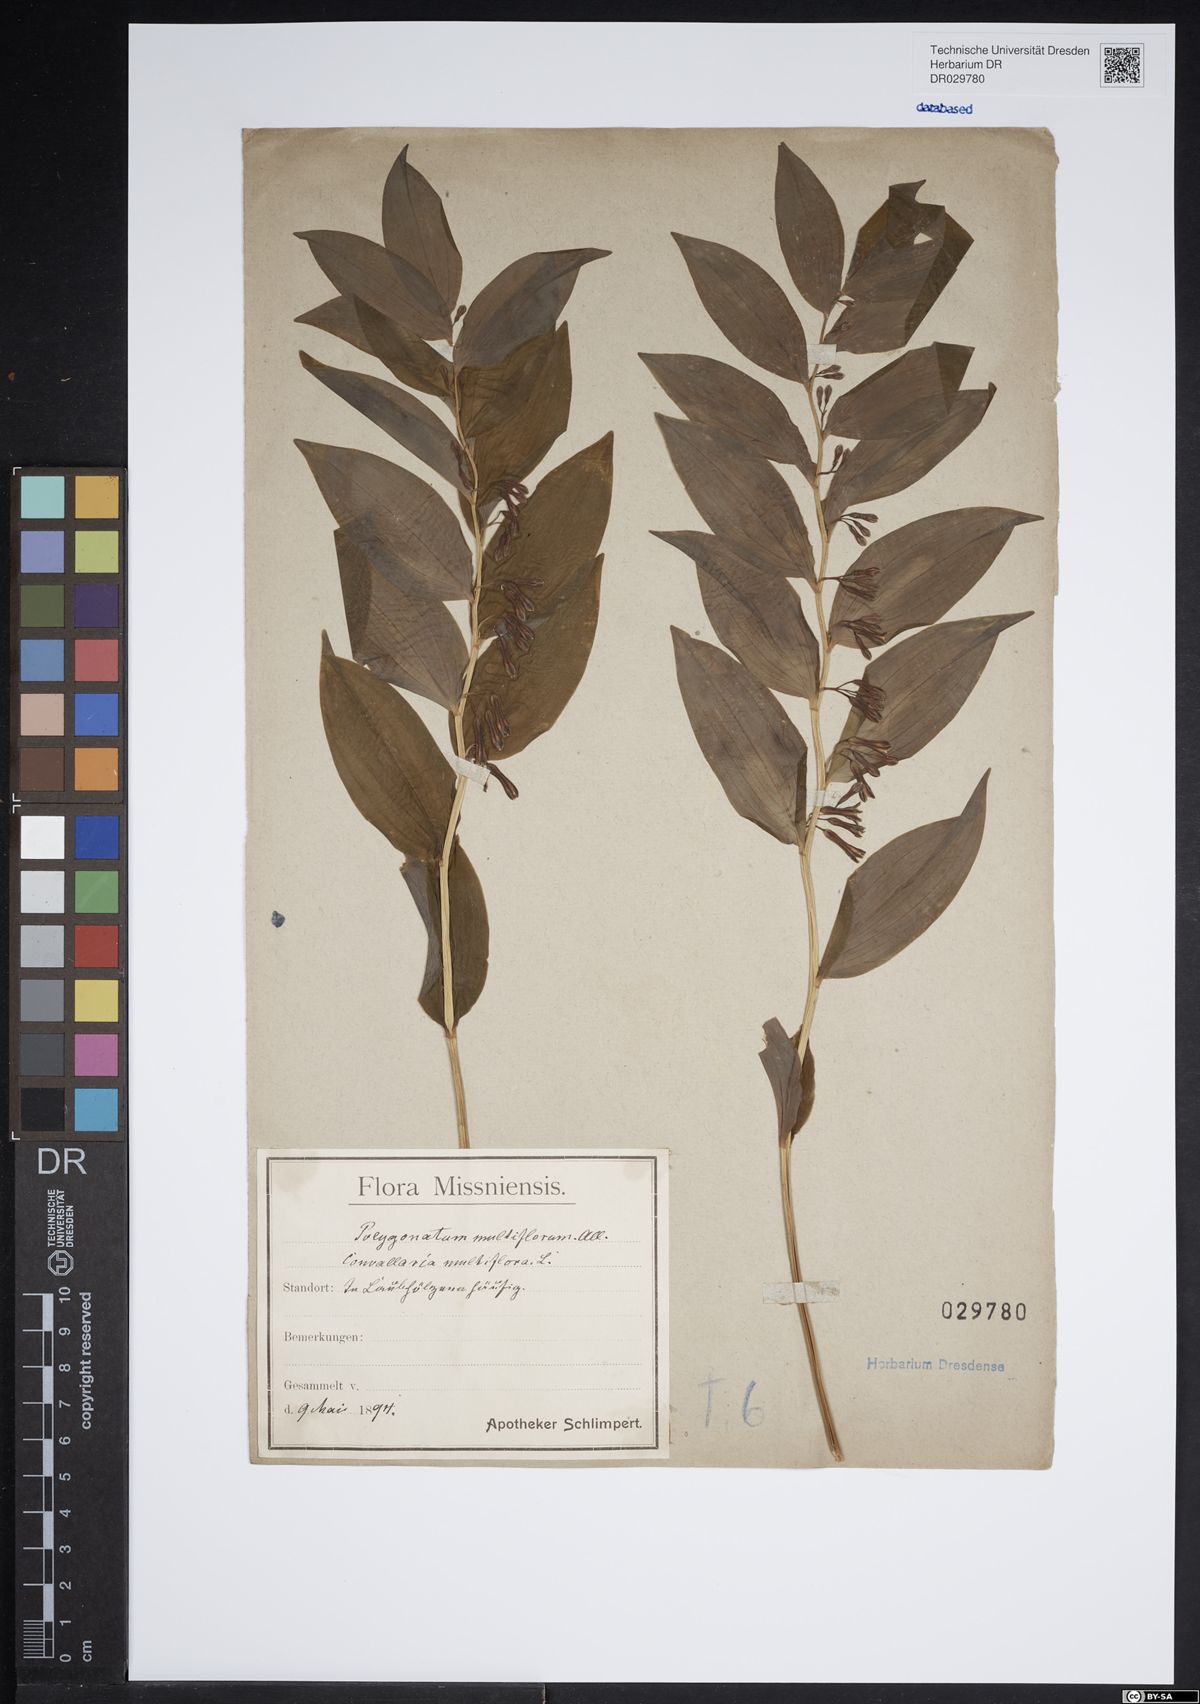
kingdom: Plantae
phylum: Tracheophyta
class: Liliopsida
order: Asparagales
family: Asparagaceae
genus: Polygonatum
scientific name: Polygonatum multiflorum
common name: Solomon's-seal
